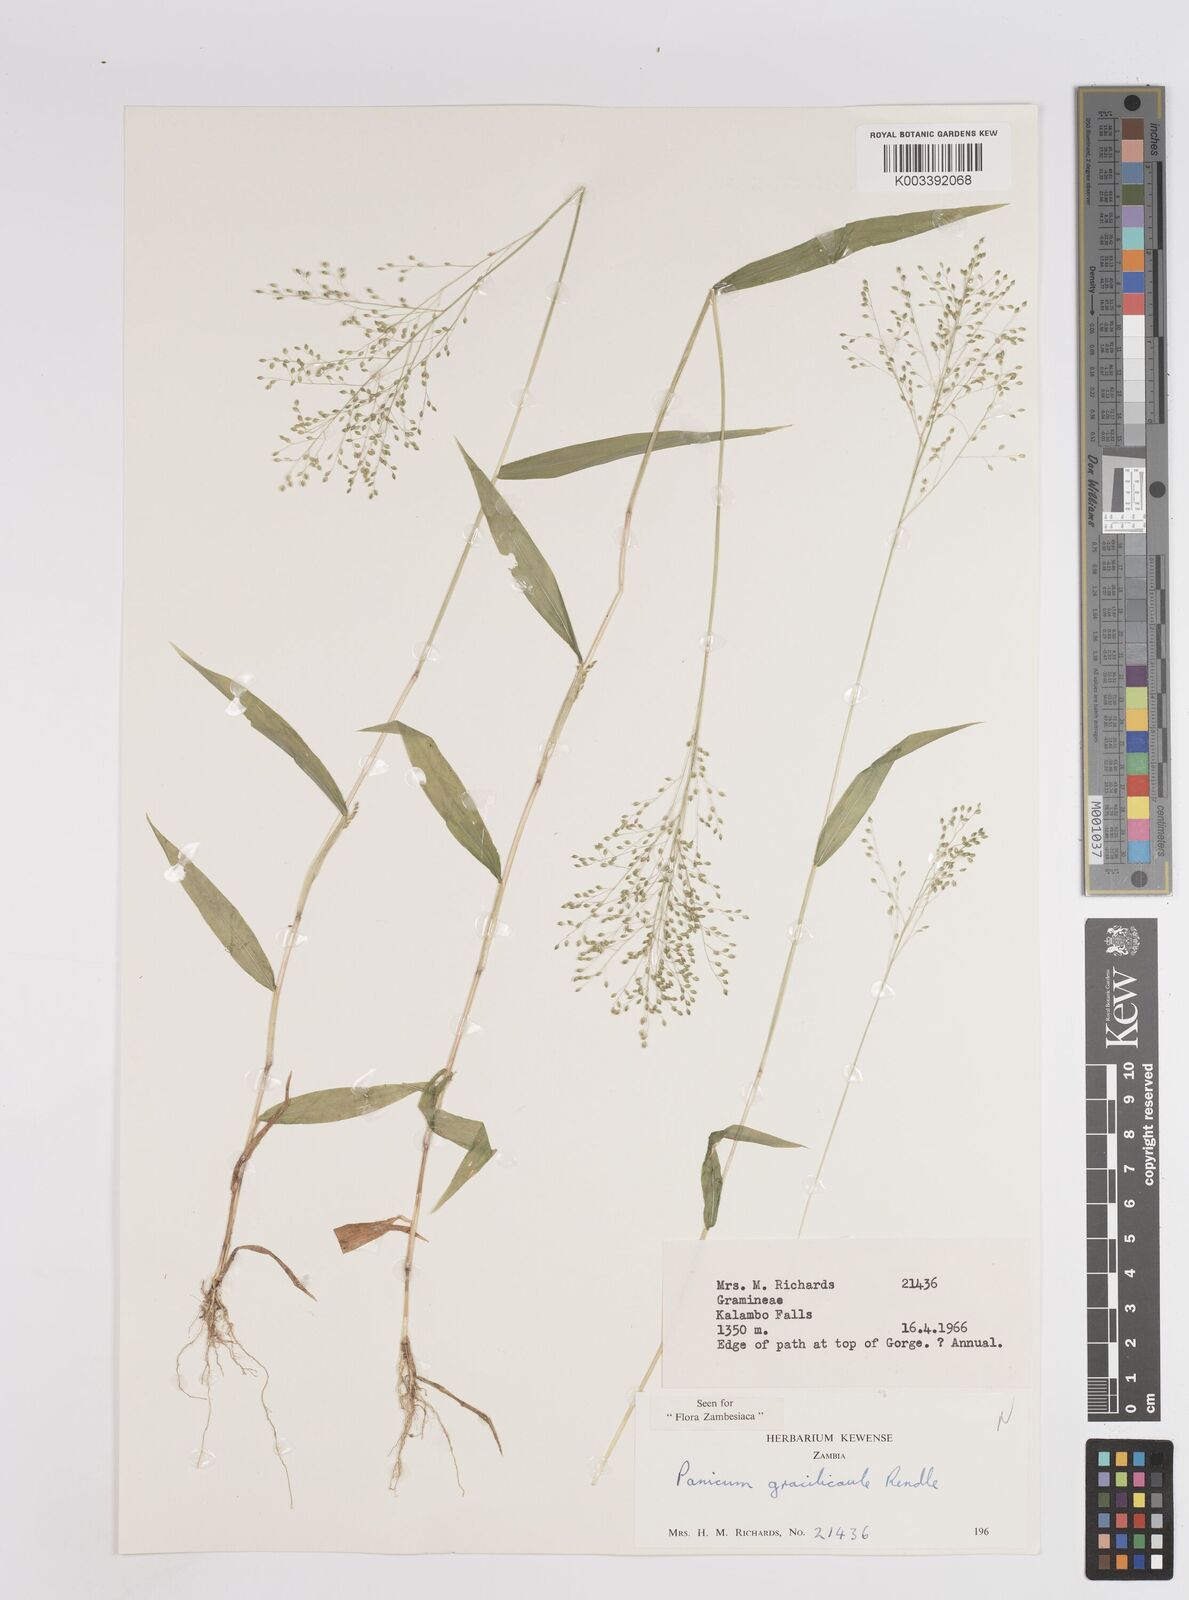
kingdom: Plantae
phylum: Tracheophyta
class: Liliopsida
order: Poales
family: Poaceae
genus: Trichanthecium
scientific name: Trichanthecium gracilicaule
